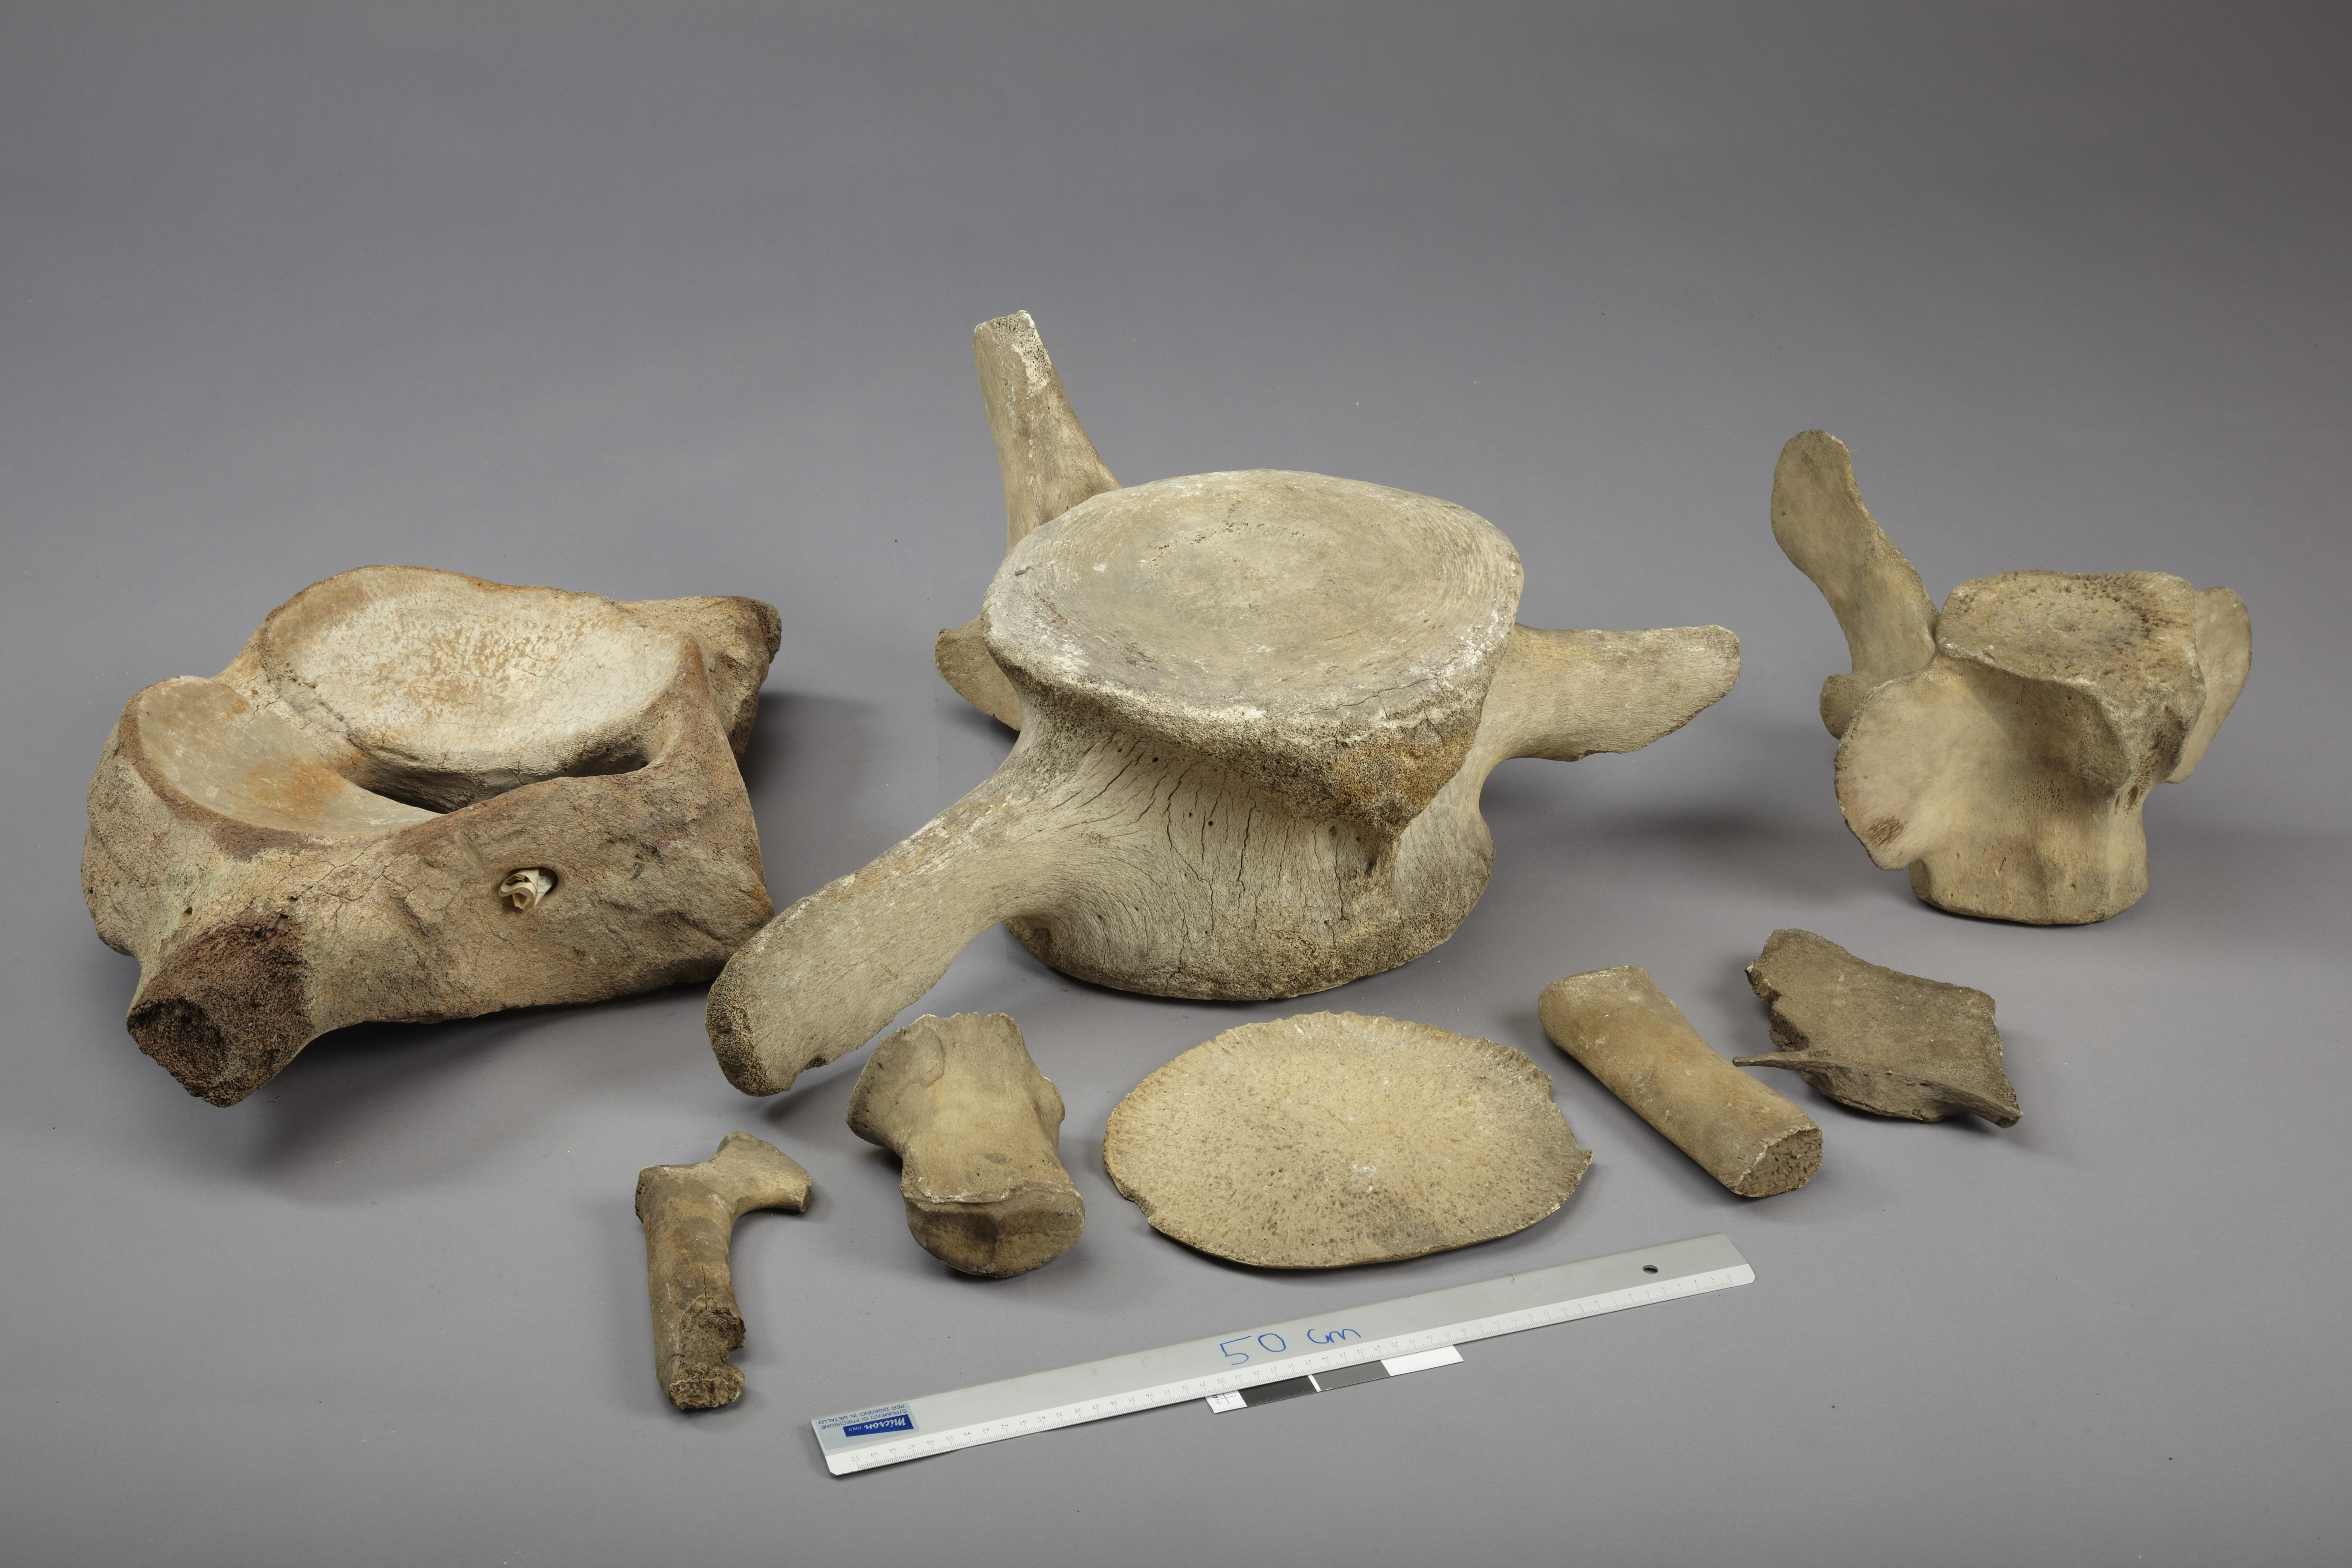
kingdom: Animalia
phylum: Chordata
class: Mammalia
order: Cetacea
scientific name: Cetacea
